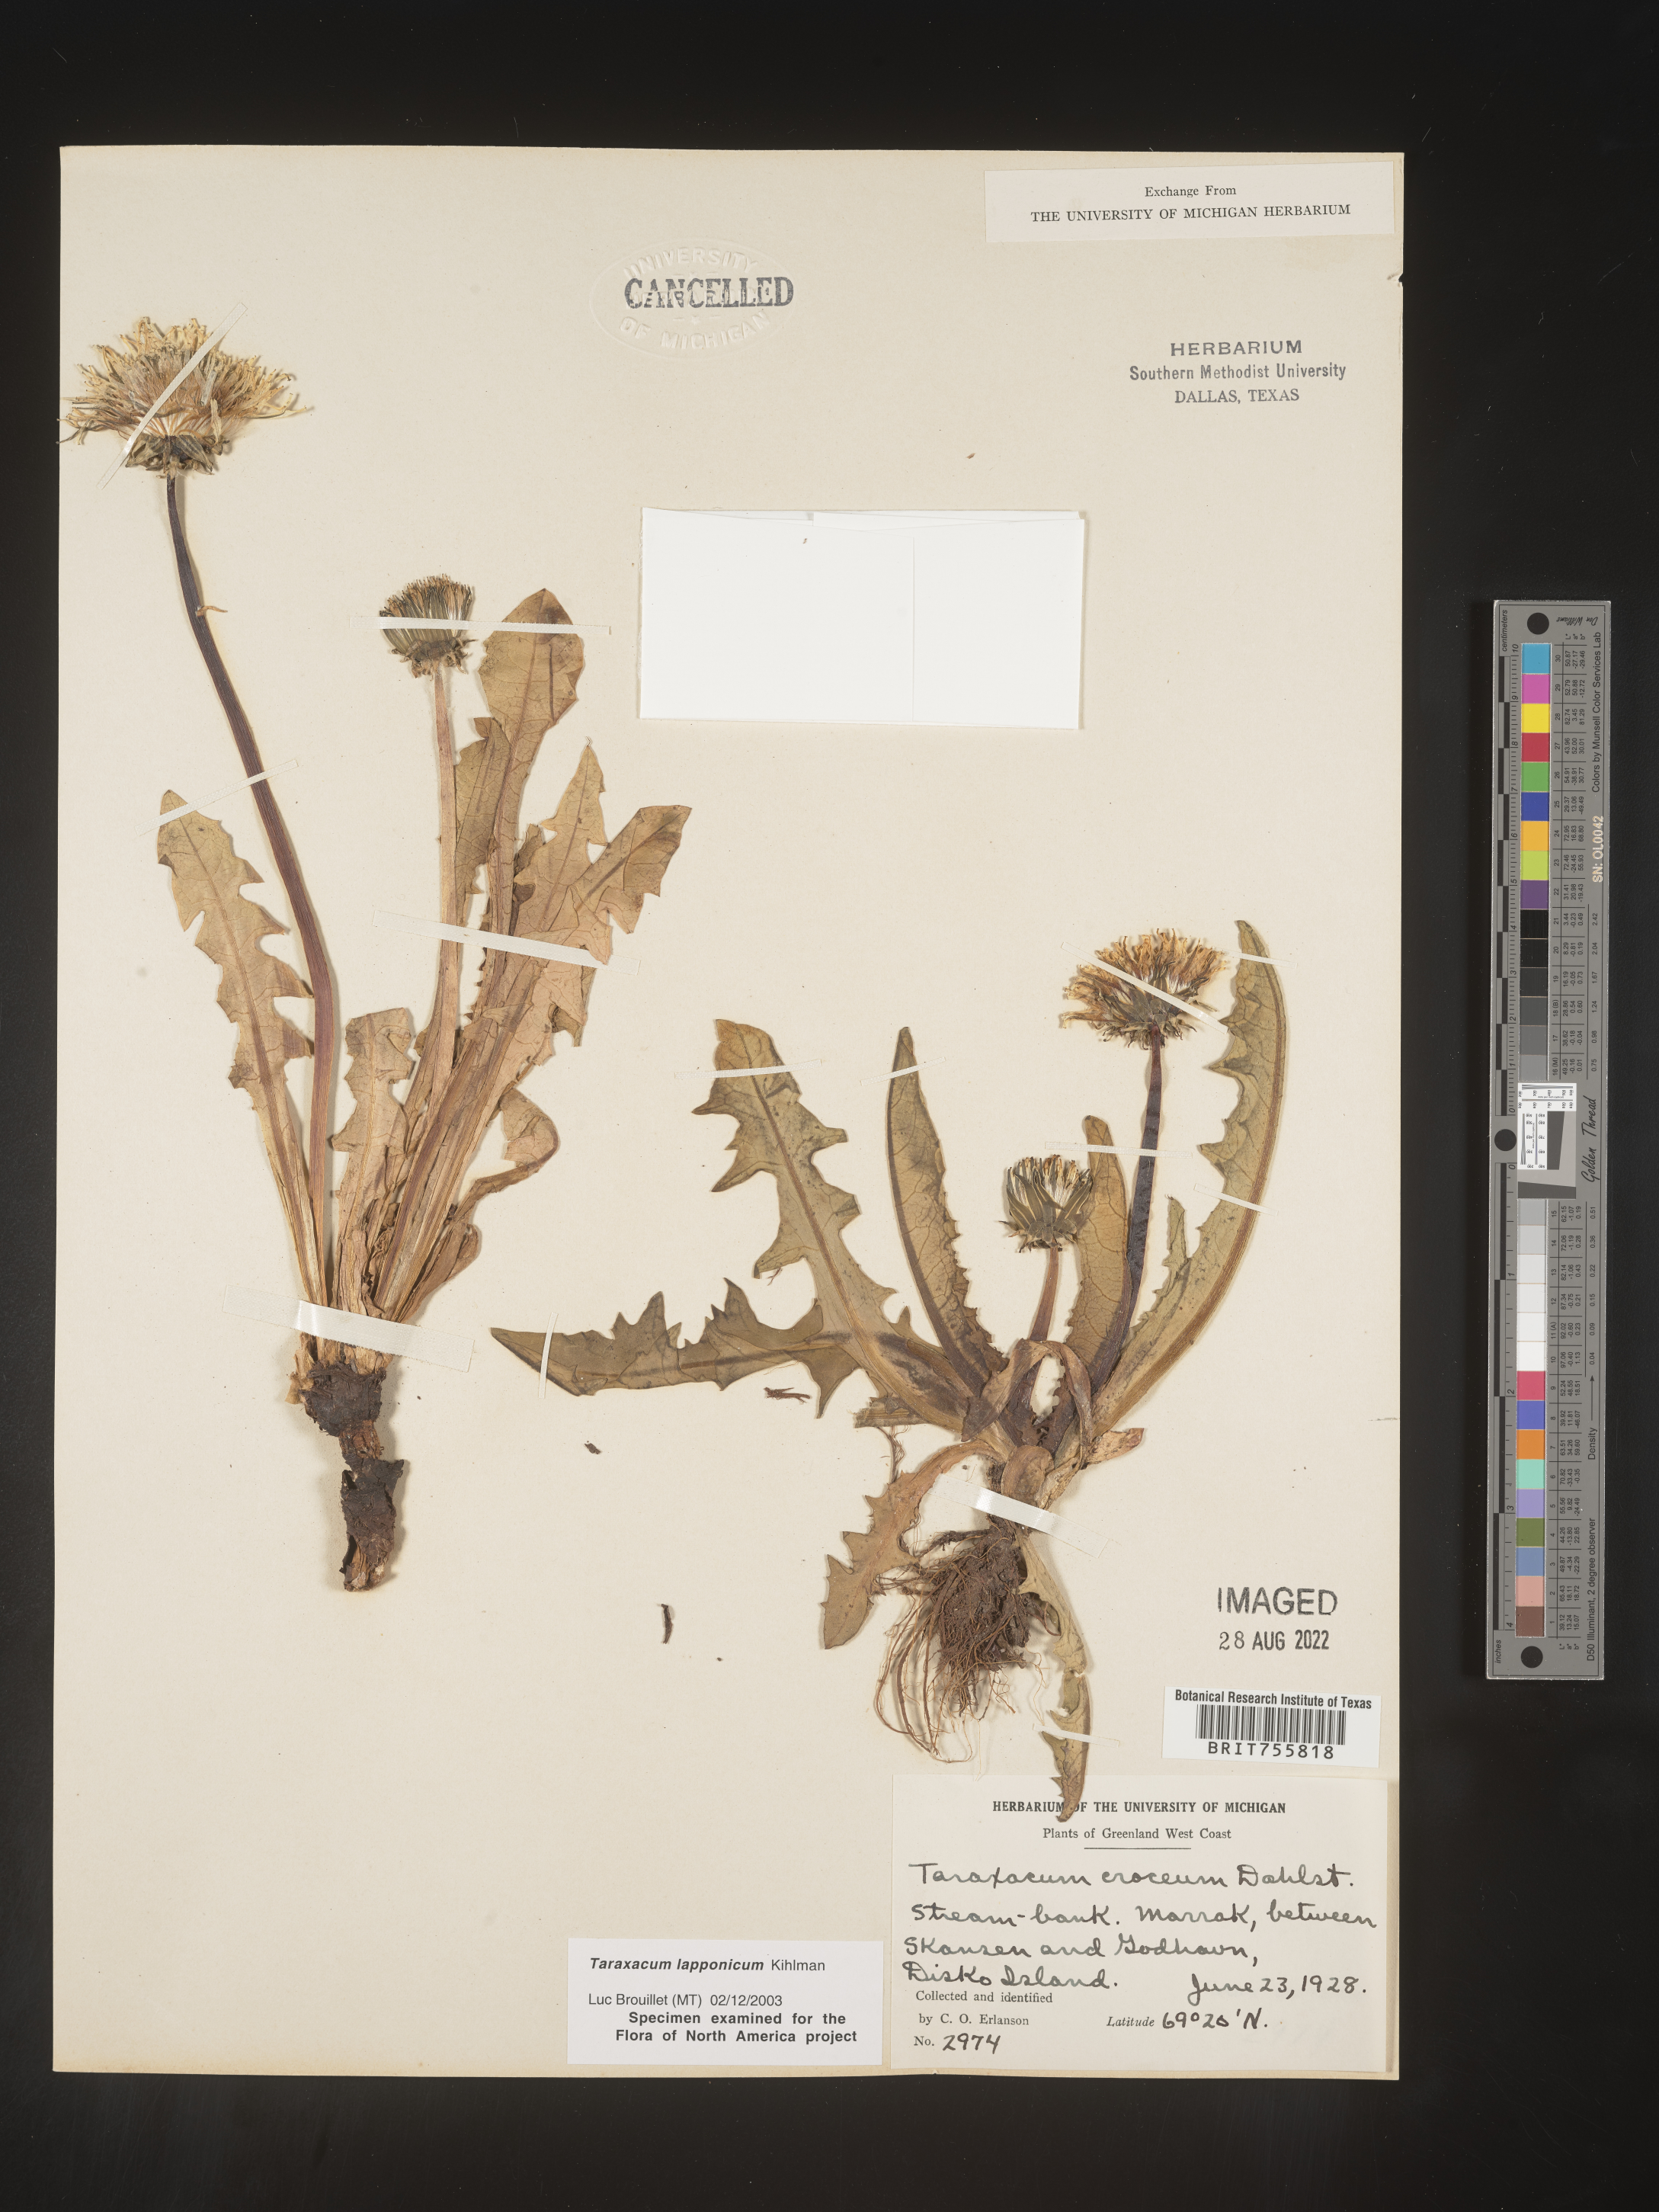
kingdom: Plantae
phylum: Tracheophyta
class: Magnoliopsida
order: Asterales
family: Asteraceae
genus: Taraxacum
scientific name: Taraxacum
